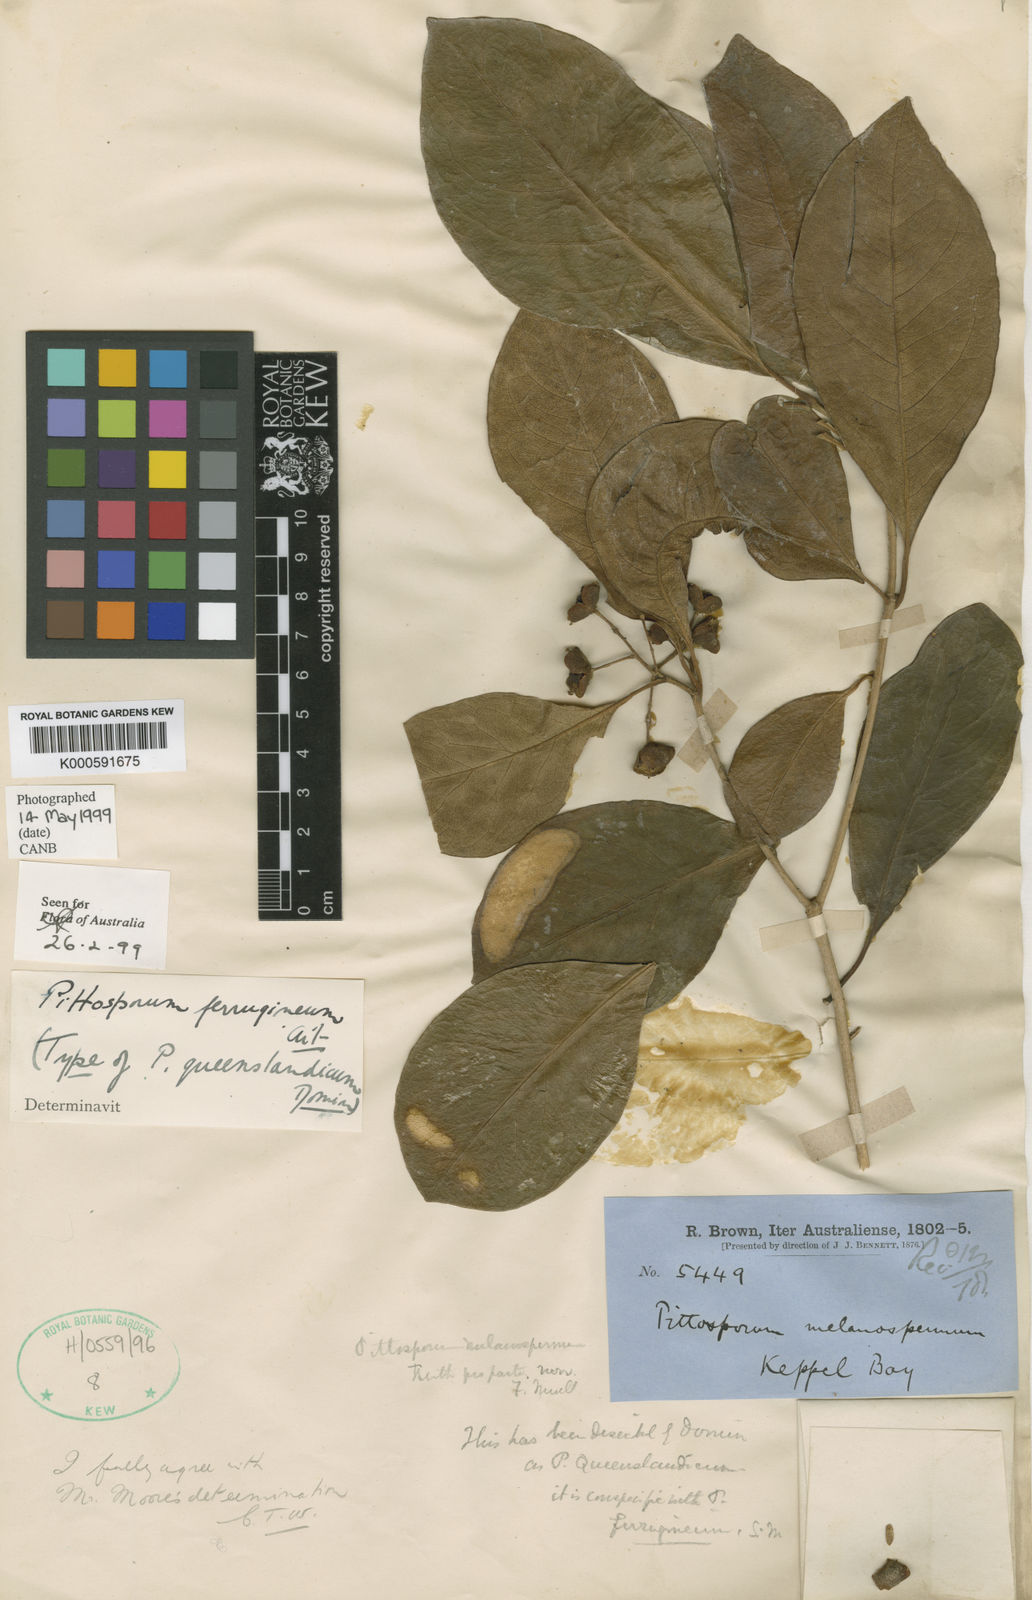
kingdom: Plantae
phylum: Tracheophyta
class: Magnoliopsida
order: Apiales
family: Pittosporaceae
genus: Pittosporum
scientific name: Pittosporum ferrugineum
